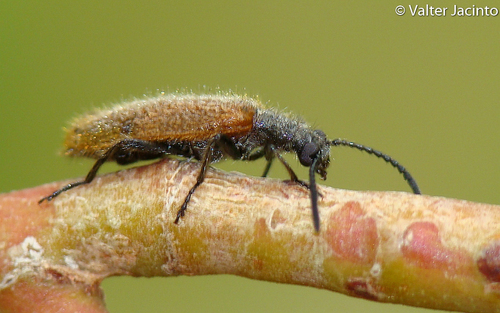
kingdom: Animalia
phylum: Arthropoda
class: Insecta
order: Coleoptera
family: Tenebrionidae
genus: Lagria
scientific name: Lagria grenieri
